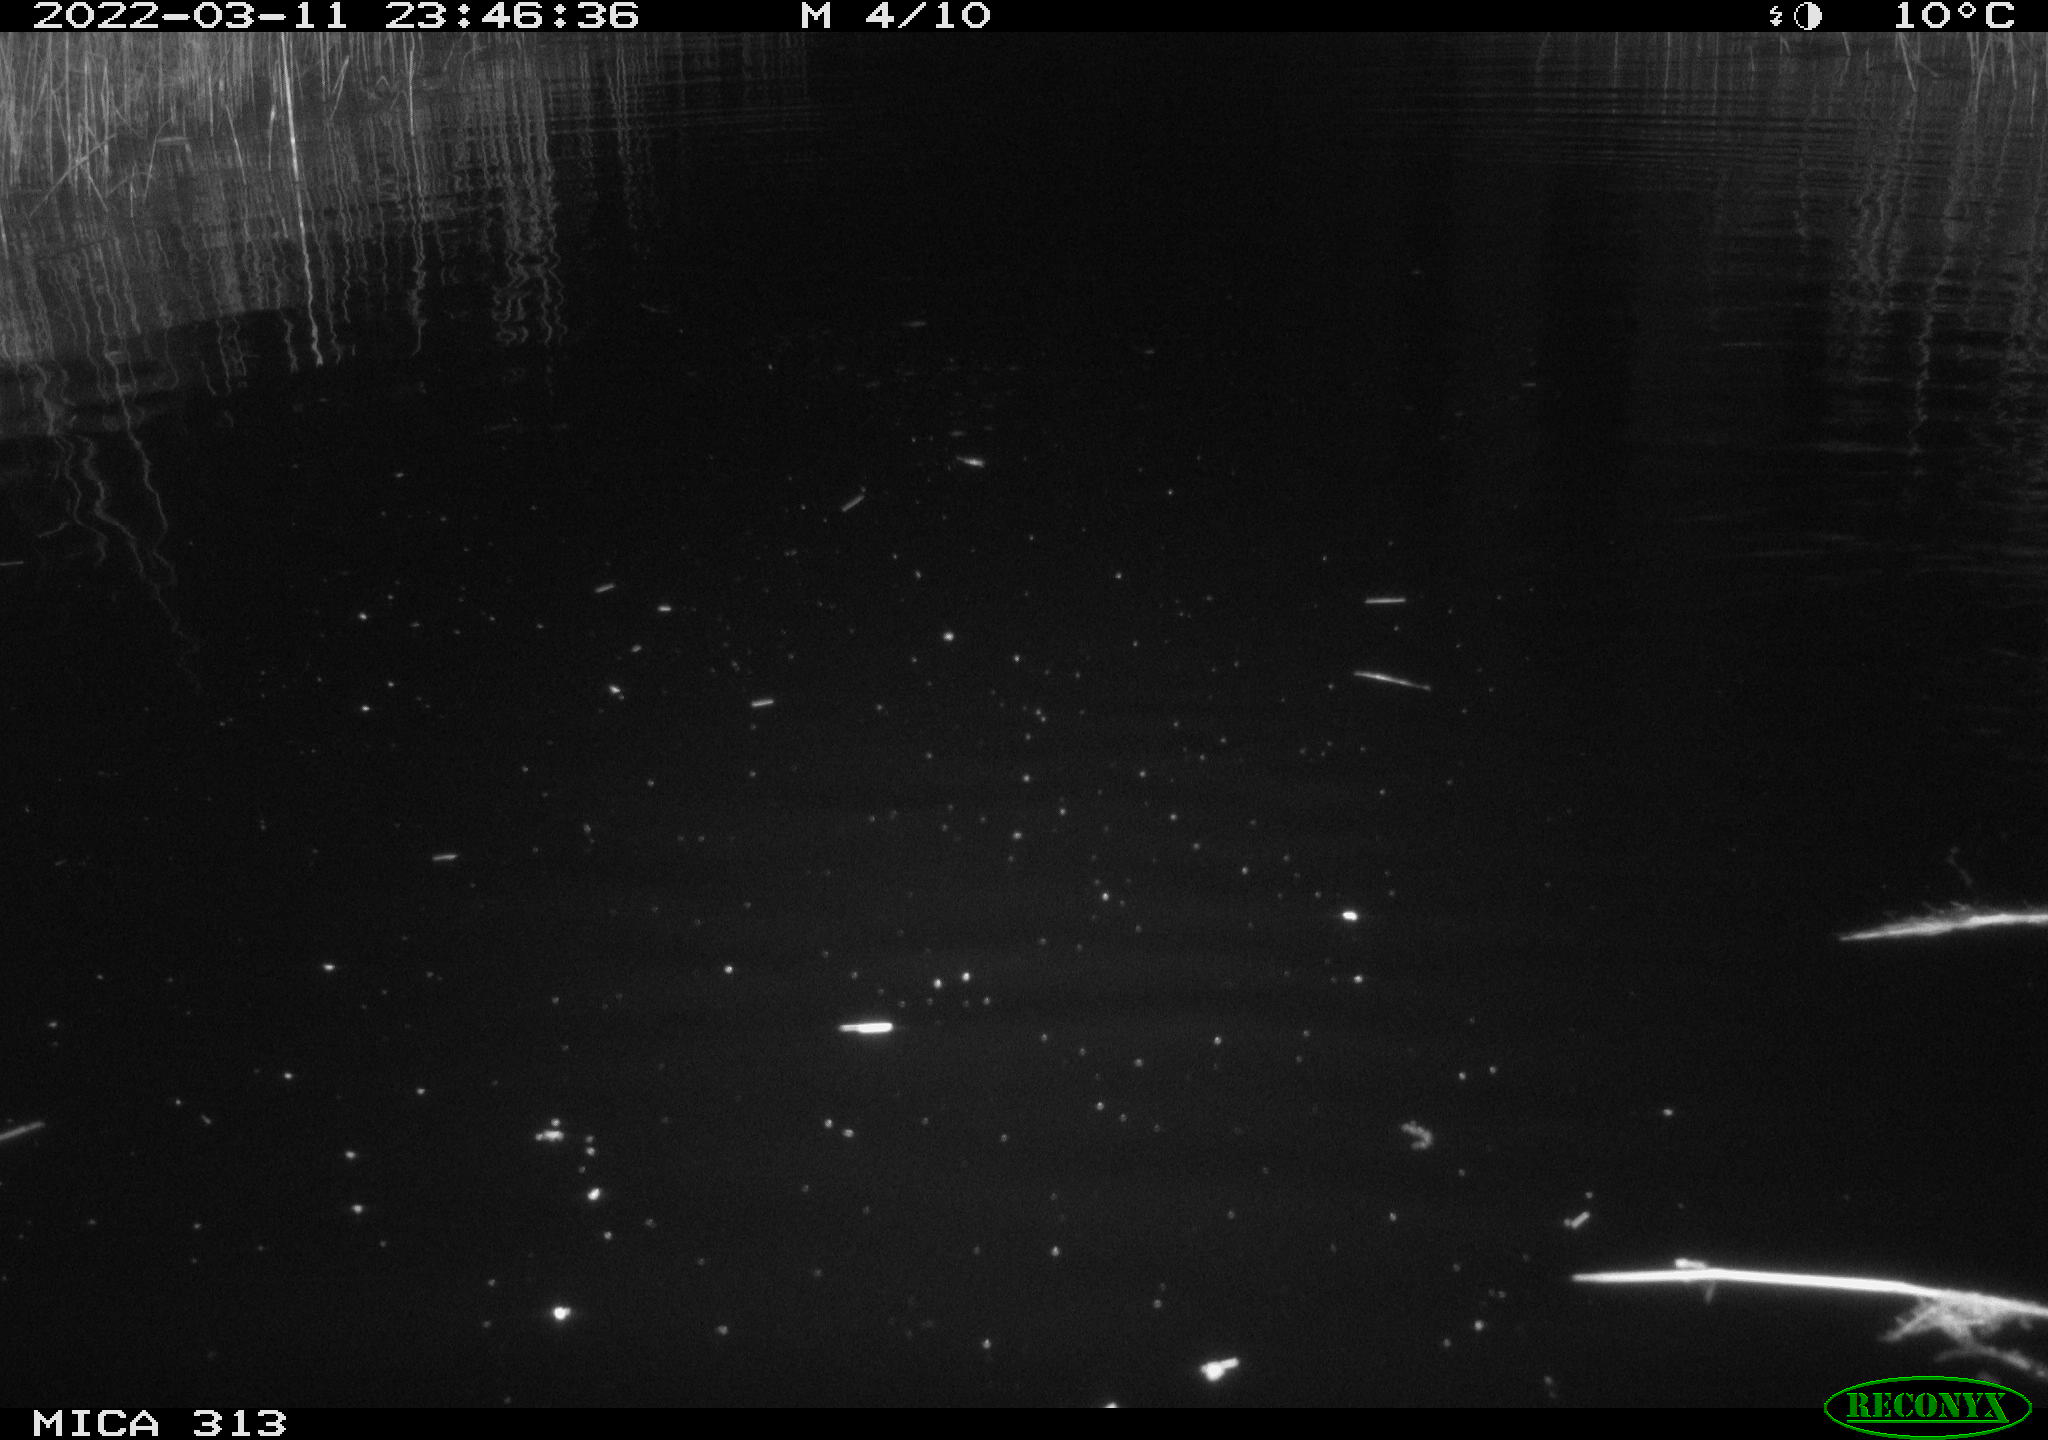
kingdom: Animalia
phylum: Chordata
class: Aves
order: Anseriformes
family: Anatidae
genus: Anas
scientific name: Anas platyrhynchos
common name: Mallard
